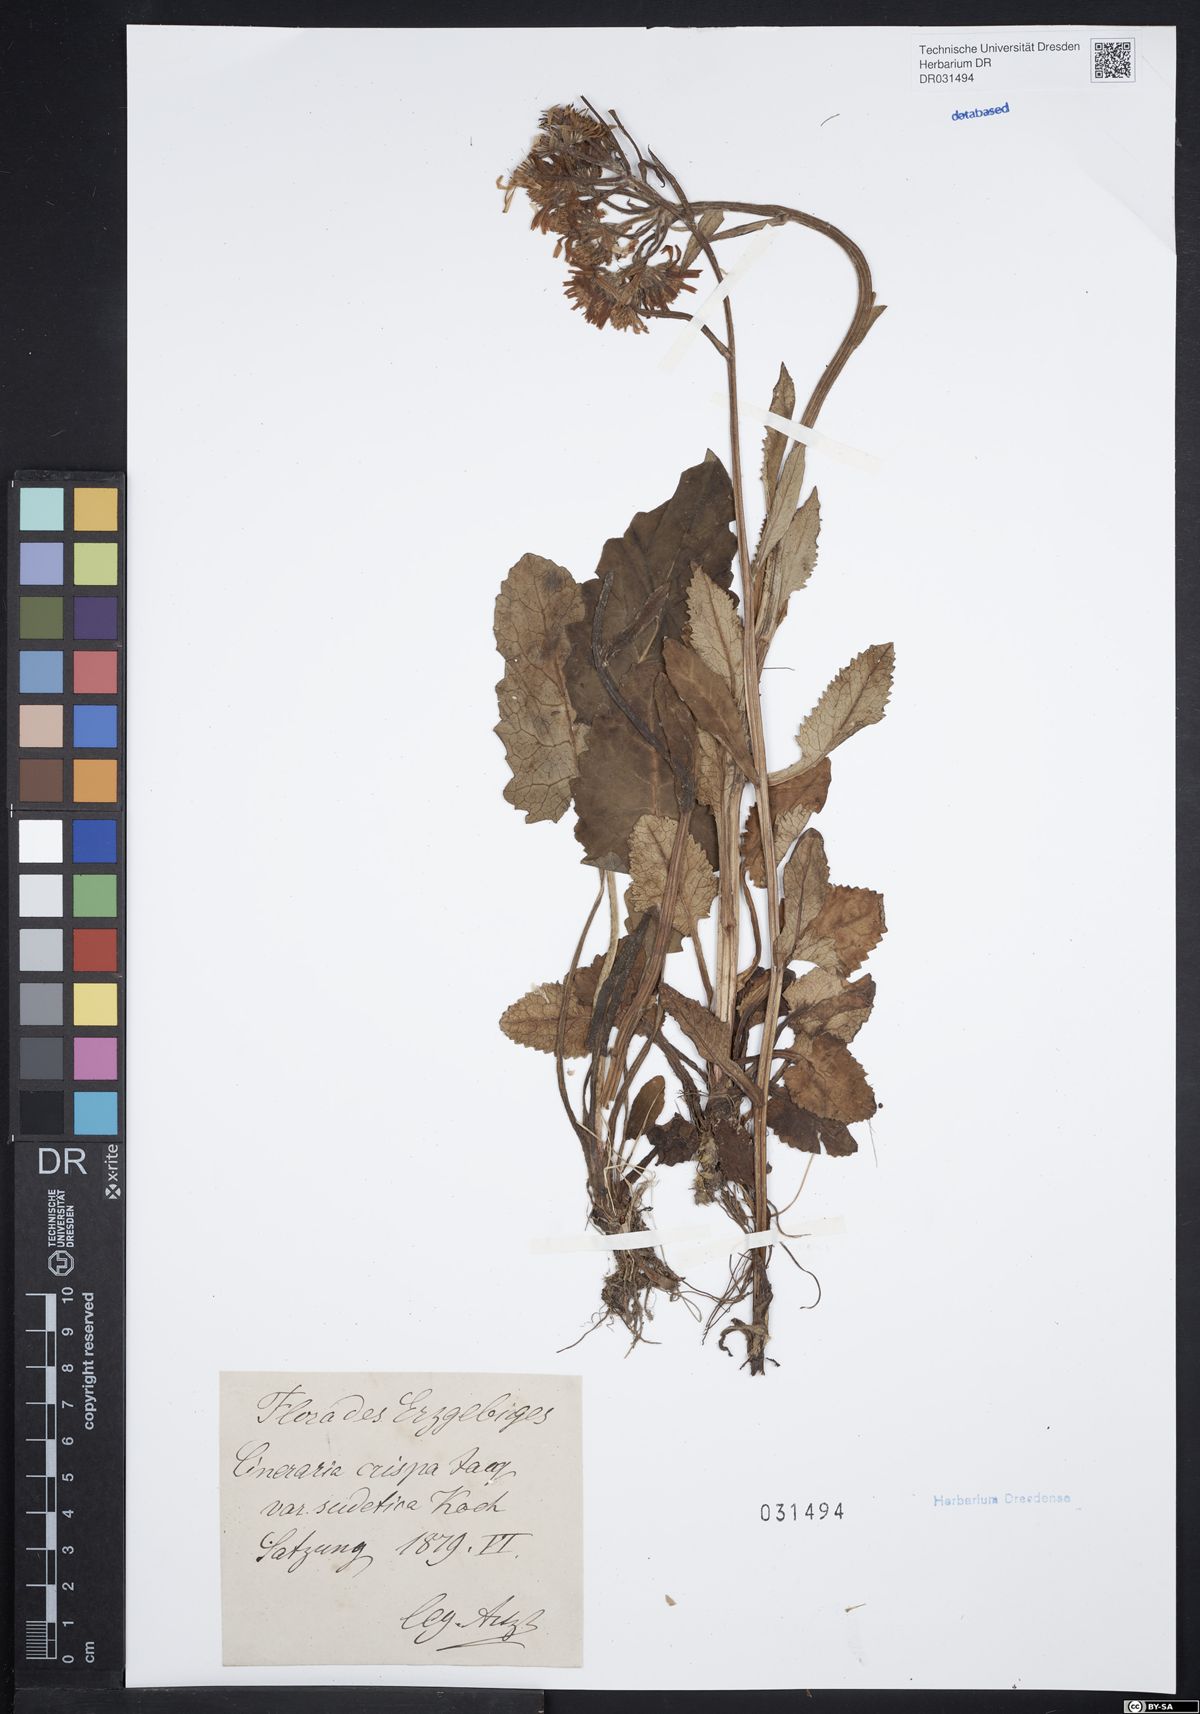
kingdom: Plantae
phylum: Tracheophyta
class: Magnoliopsida
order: Asterales
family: Asteraceae
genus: Tephroseris
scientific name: Tephroseris crispa
